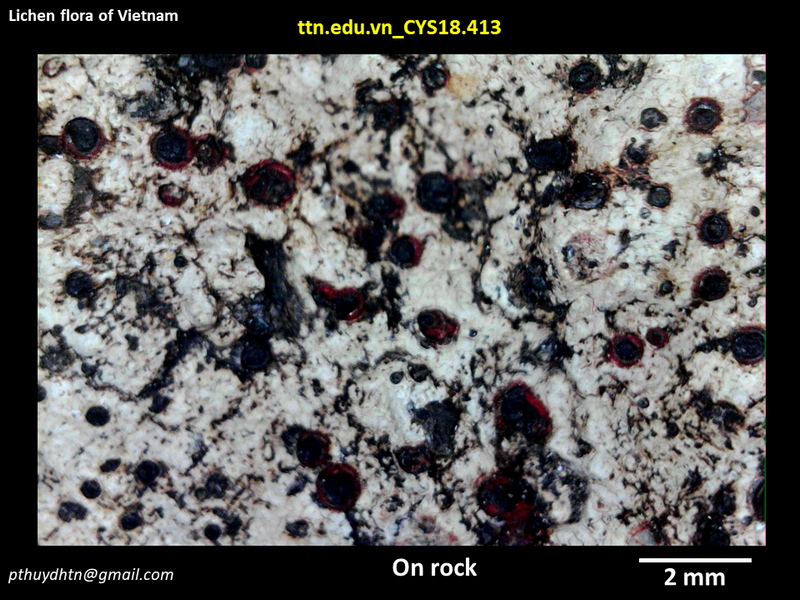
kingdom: Fungi
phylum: Ascomycota
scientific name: Ascomycota
